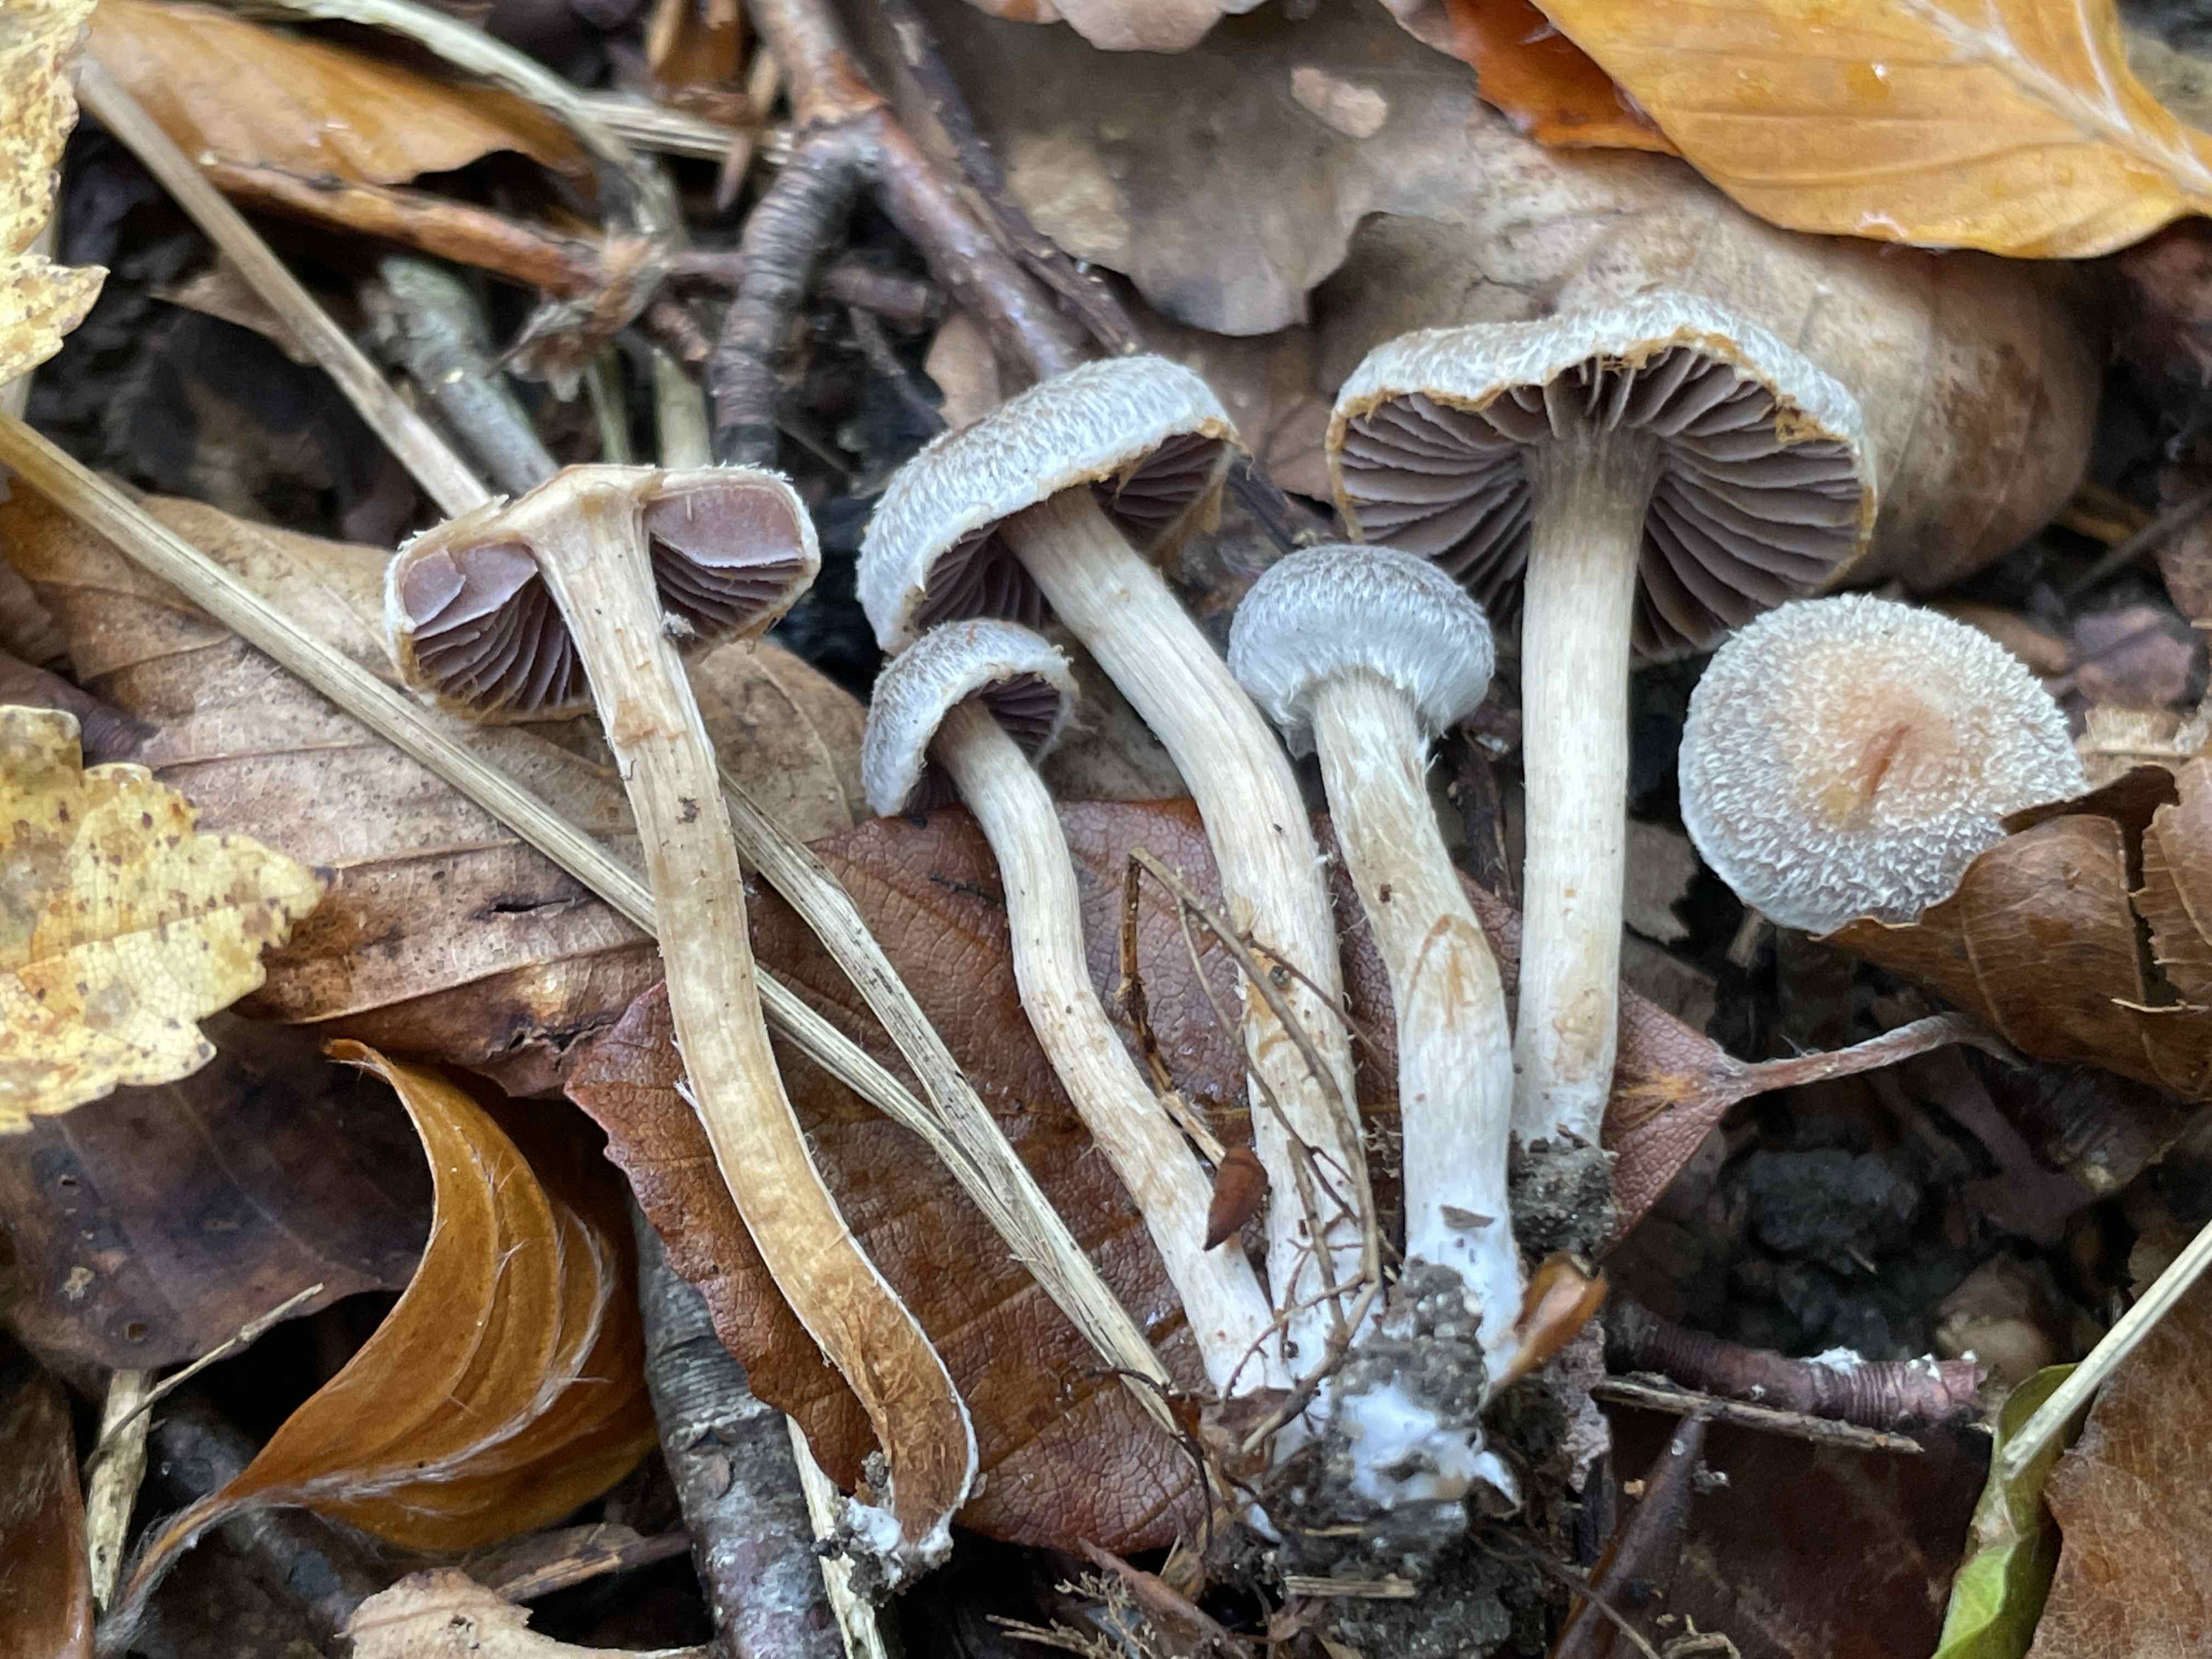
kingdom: Fungi
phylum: Basidiomycota
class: Agaricomycetes
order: Agaricales
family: Cortinariaceae
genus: Cortinarius
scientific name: Cortinarius geraniolens
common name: geranium-slørhat
